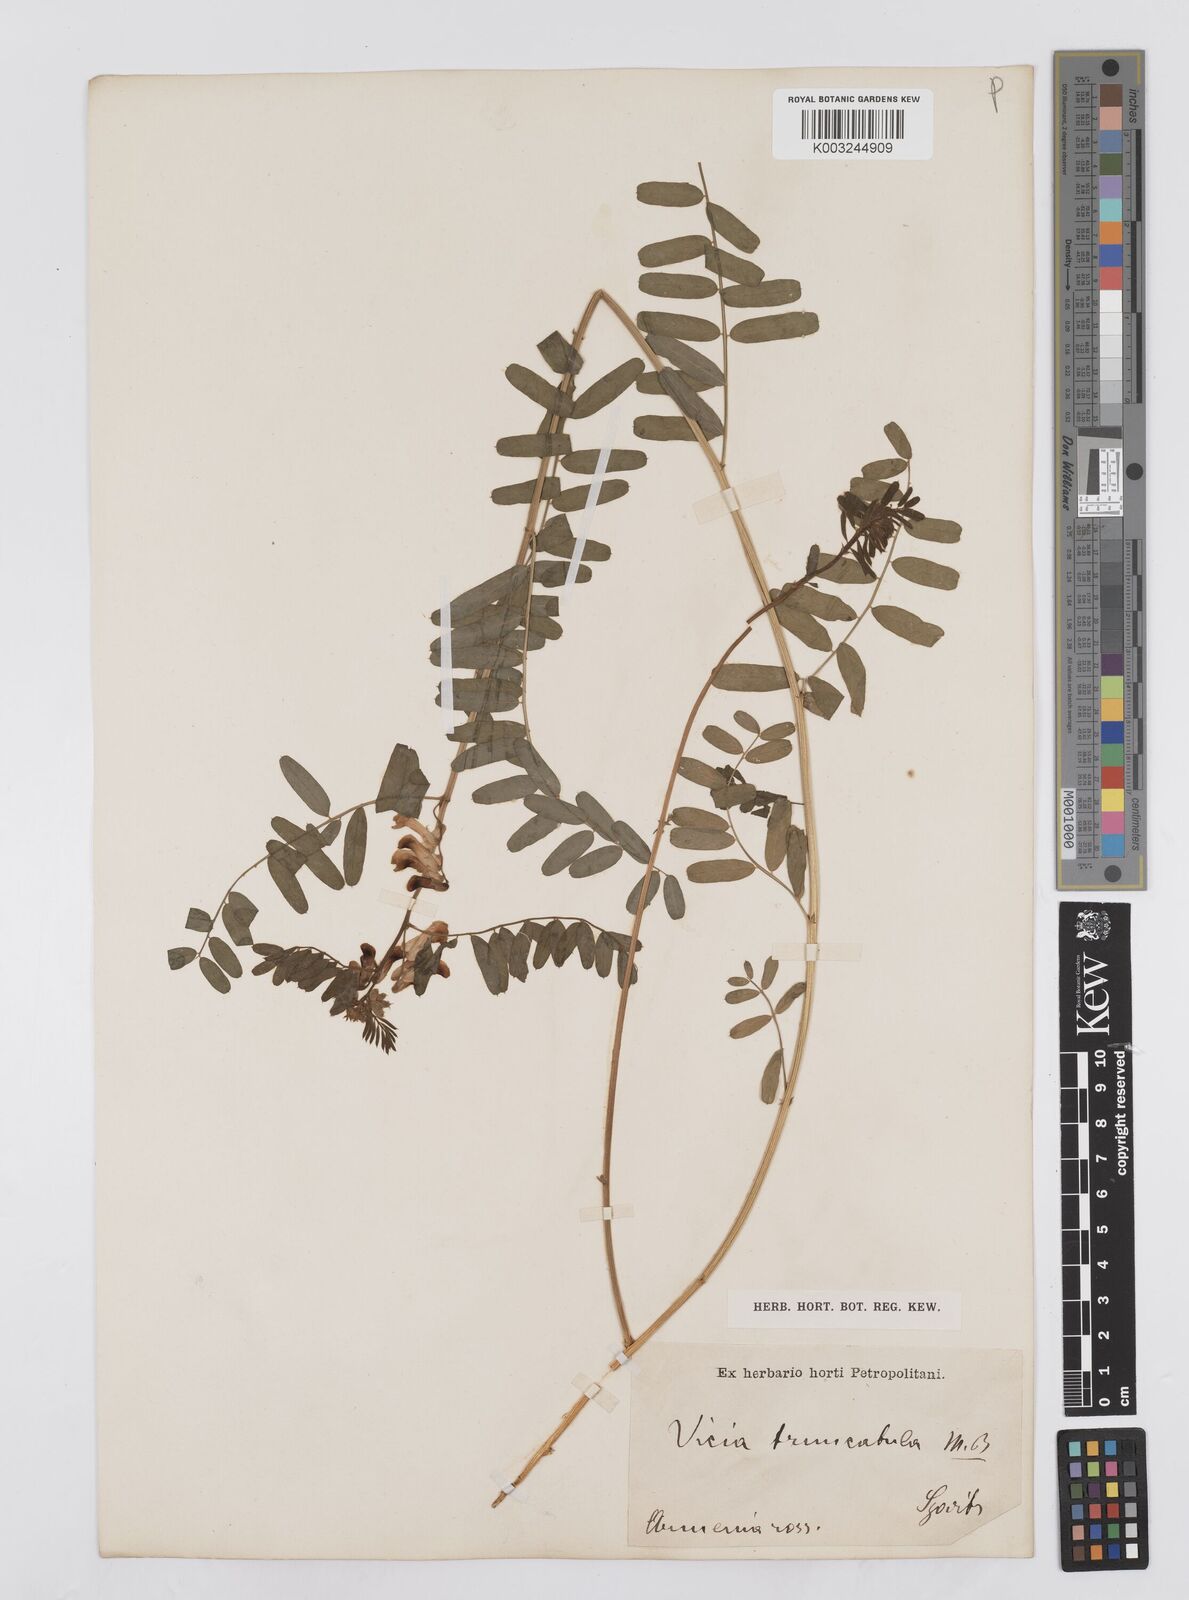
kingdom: Plantae
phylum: Tracheophyta
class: Magnoliopsida
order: Fabales
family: Fabaceae
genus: Vicia
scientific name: Vicia abbreviata
